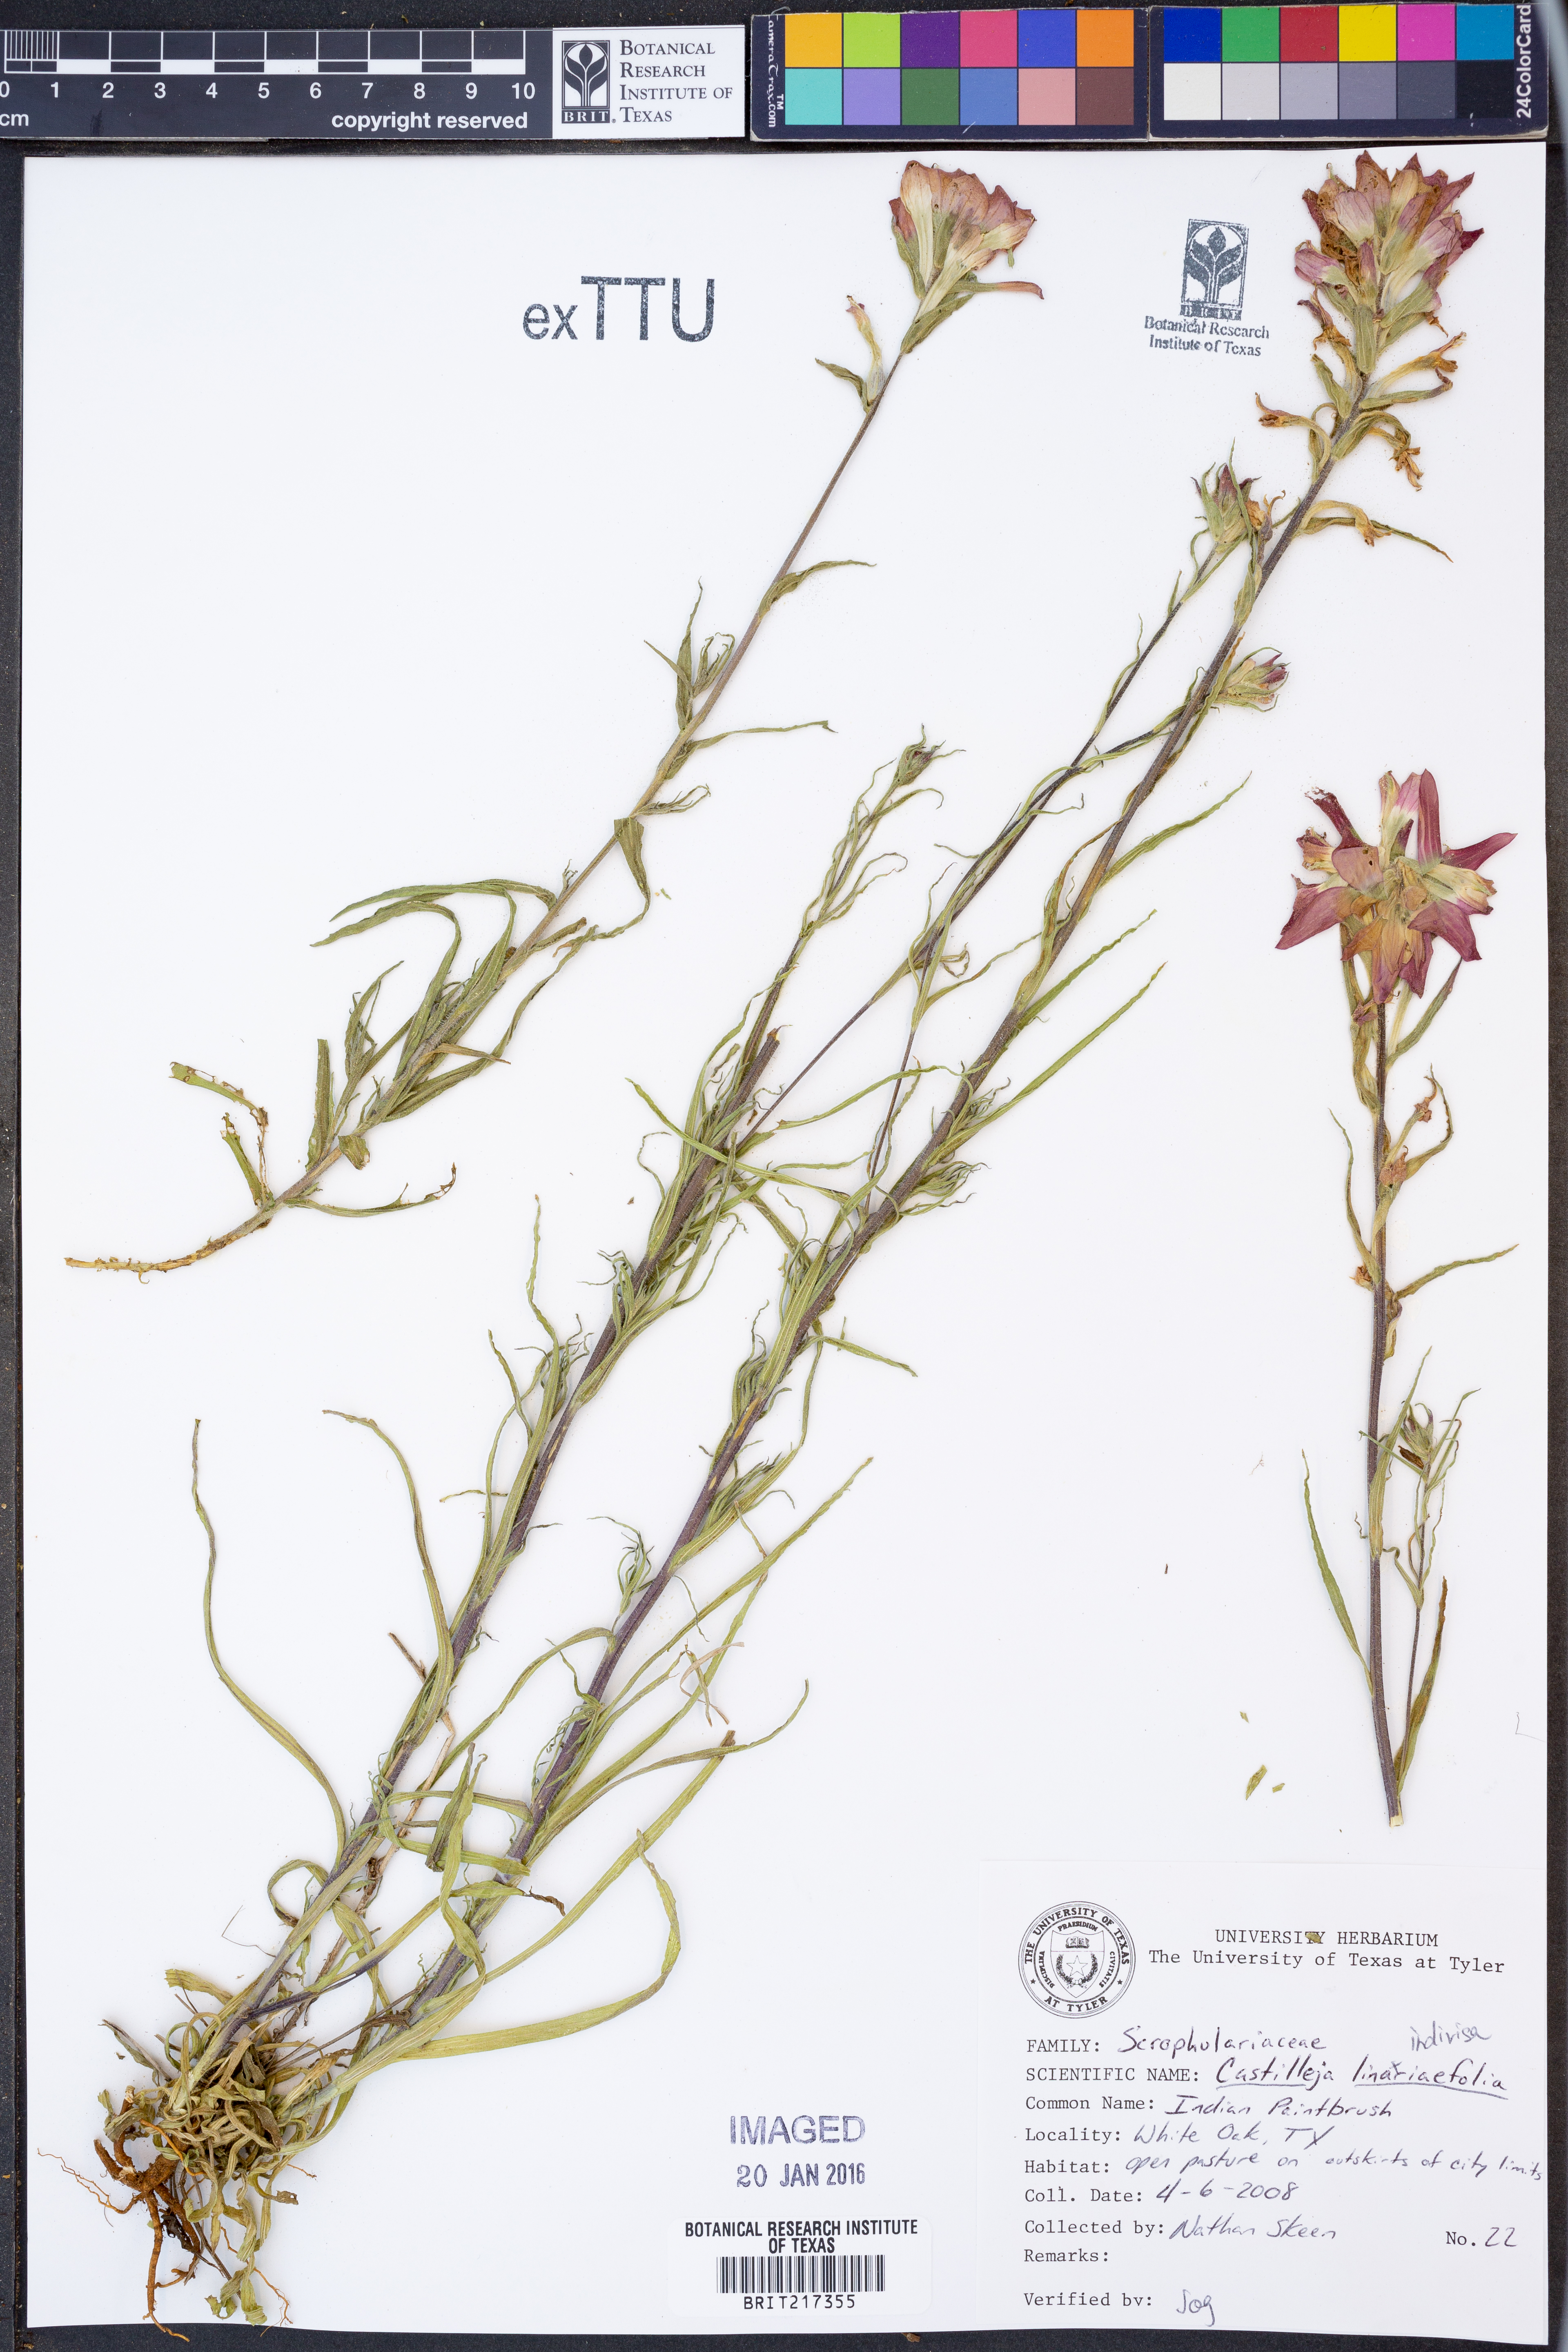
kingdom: Plantae
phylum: Tracheophyta
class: Magnoliopsida
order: Lamiales
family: Orobanchaceae
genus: Castilleja
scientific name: Castilleja indivisa
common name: Texas paintbrush
